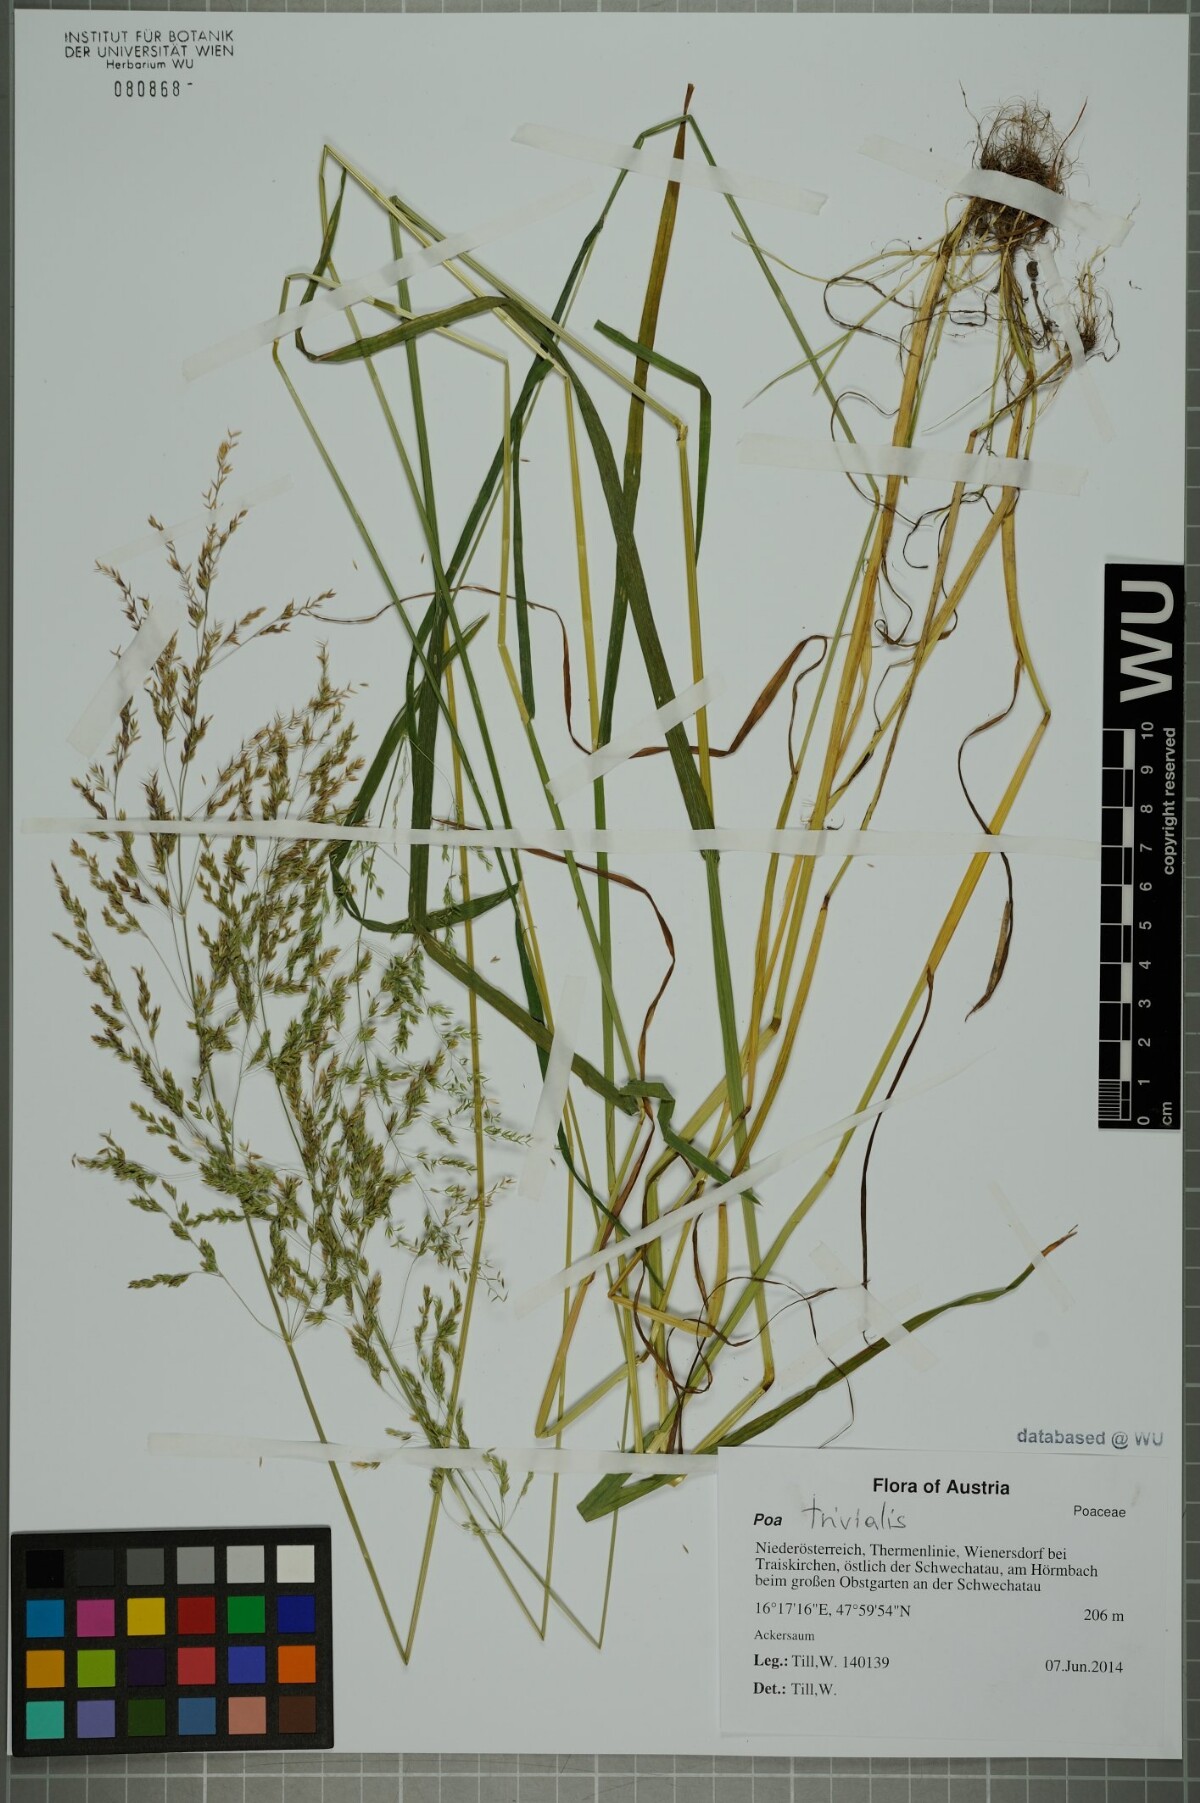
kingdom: Plantae
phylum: Tracheophyta
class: Liliopsida
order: Poales
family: Poaceae
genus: Poa
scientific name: Poa trivialis
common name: Rough bluegrass
